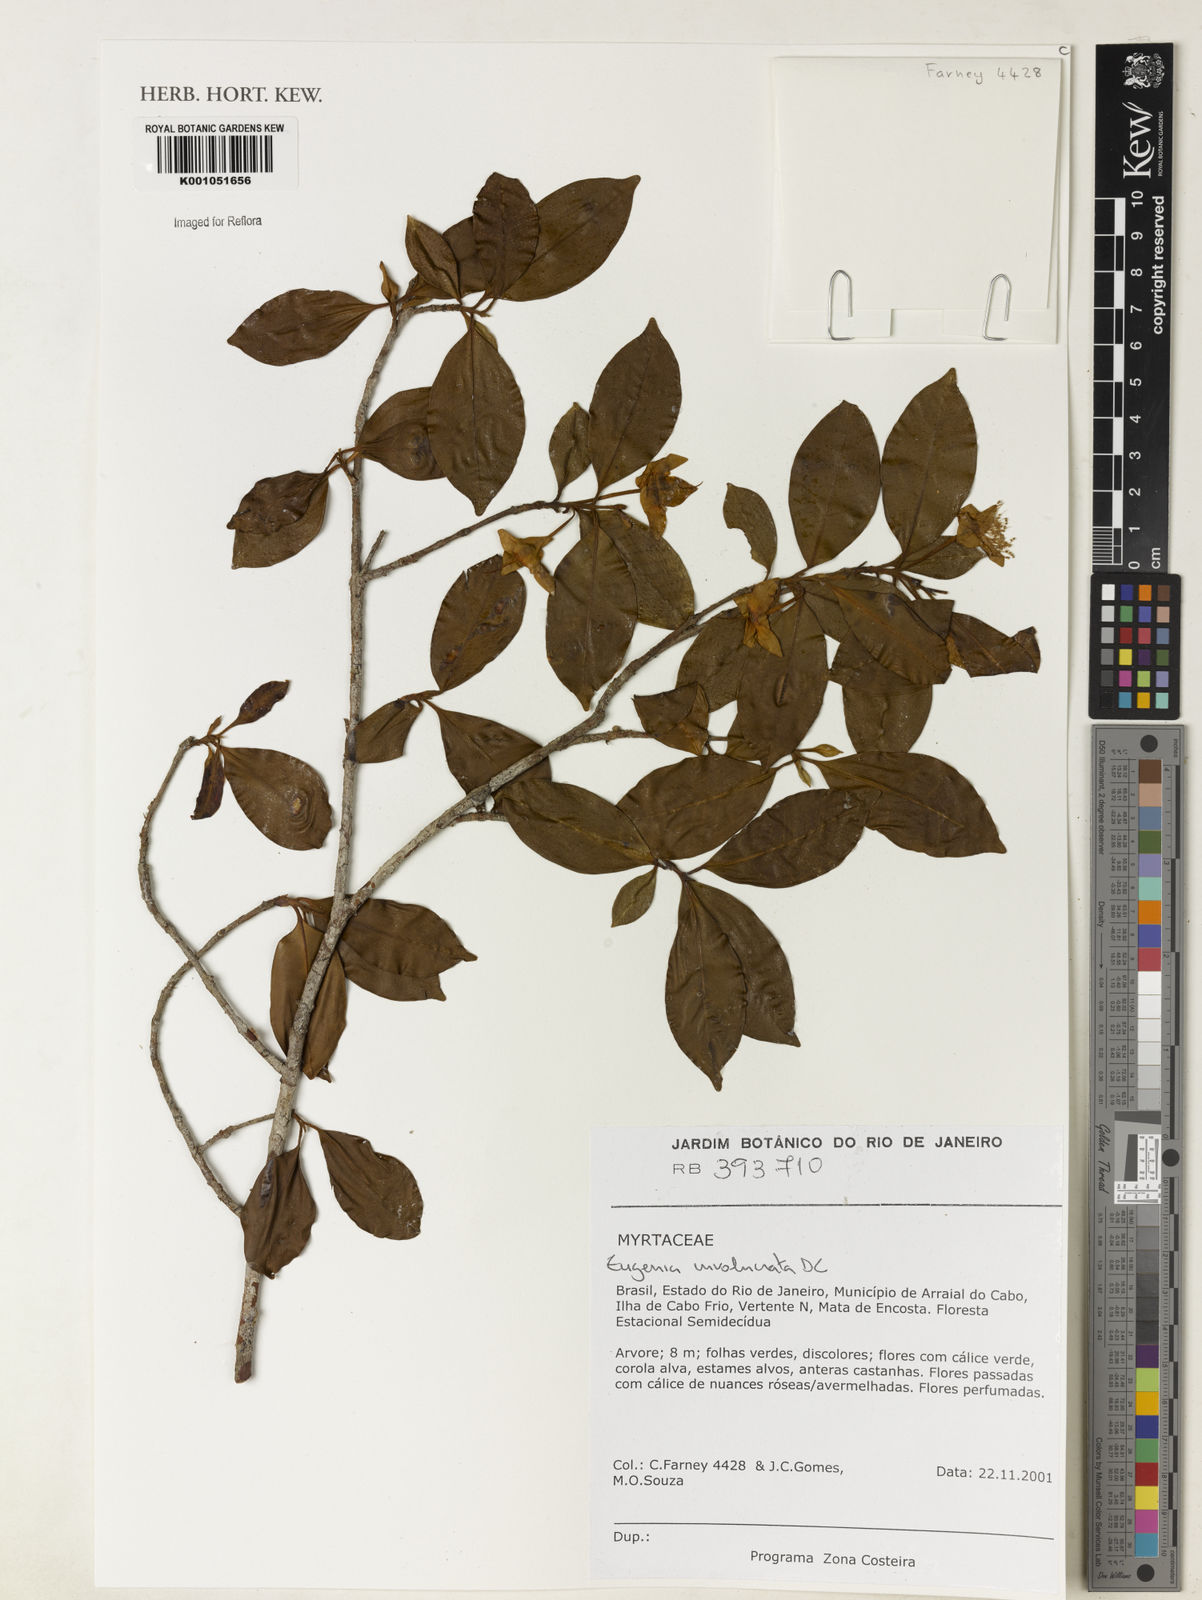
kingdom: Plantae
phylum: Tracheophyta
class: Magnoliopsida
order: Myrtales
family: Myrtaceae
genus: Eugenia
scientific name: Eugenia involucrata
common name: Cherry-of-the-rio grande
